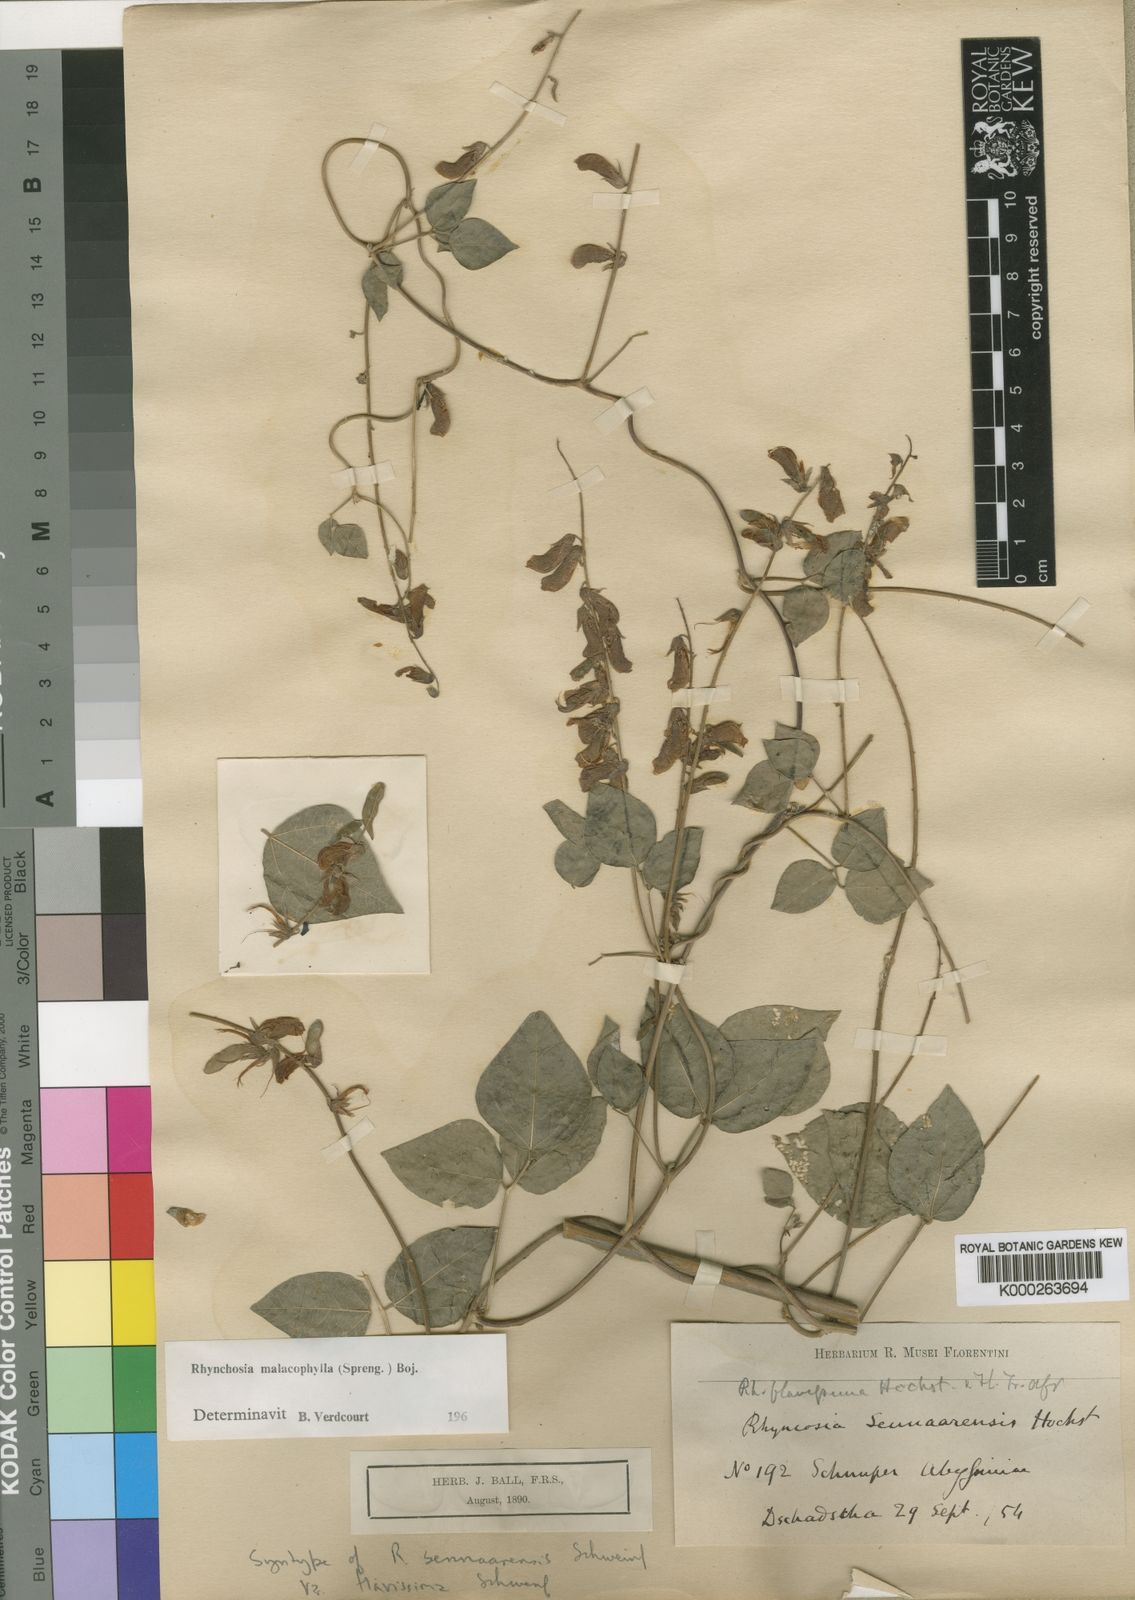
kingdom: Plantae
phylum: Tracheophyta
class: Magnoliopsida
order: Fabales
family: Fabaceae
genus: Rhynchosia
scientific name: Rhynchosia malacophylla
